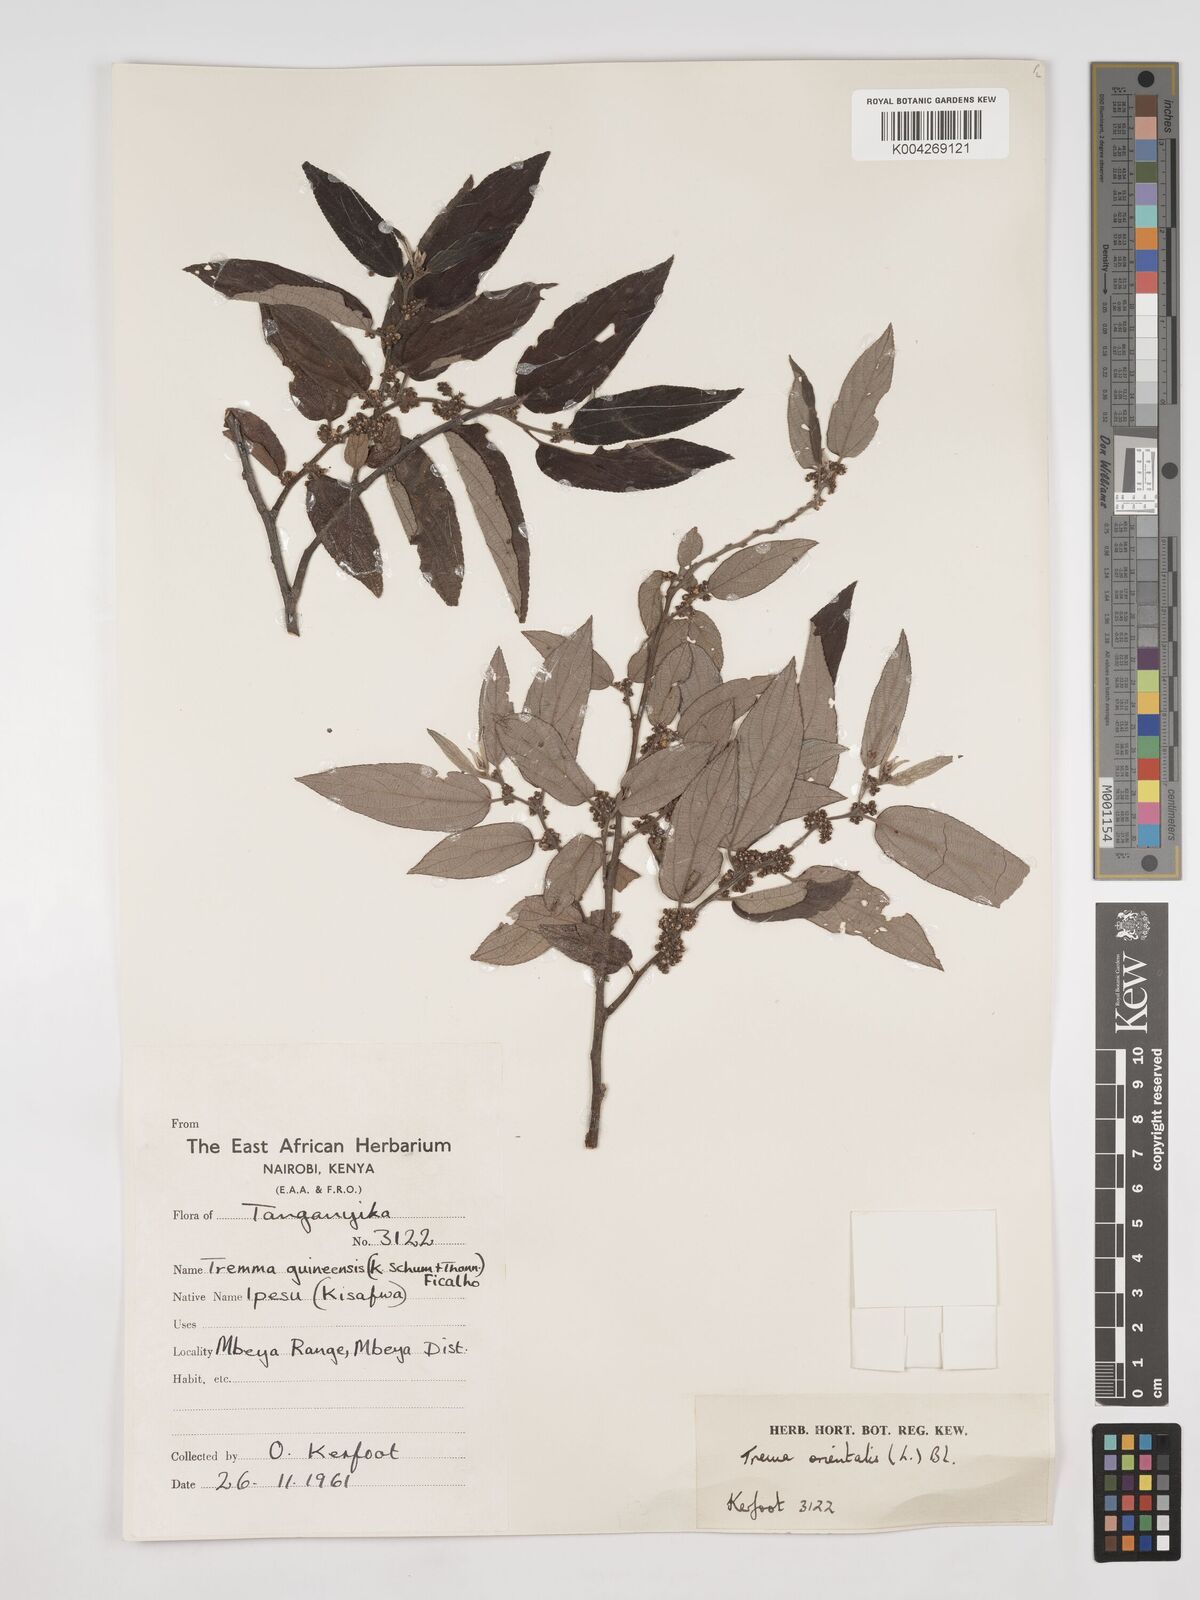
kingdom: Plantae
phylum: Tracheophyta
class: Magnoliopsida
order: Rosales
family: Cannabaceae
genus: Trema
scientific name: Trema orientale
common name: Indian charcoal tree
